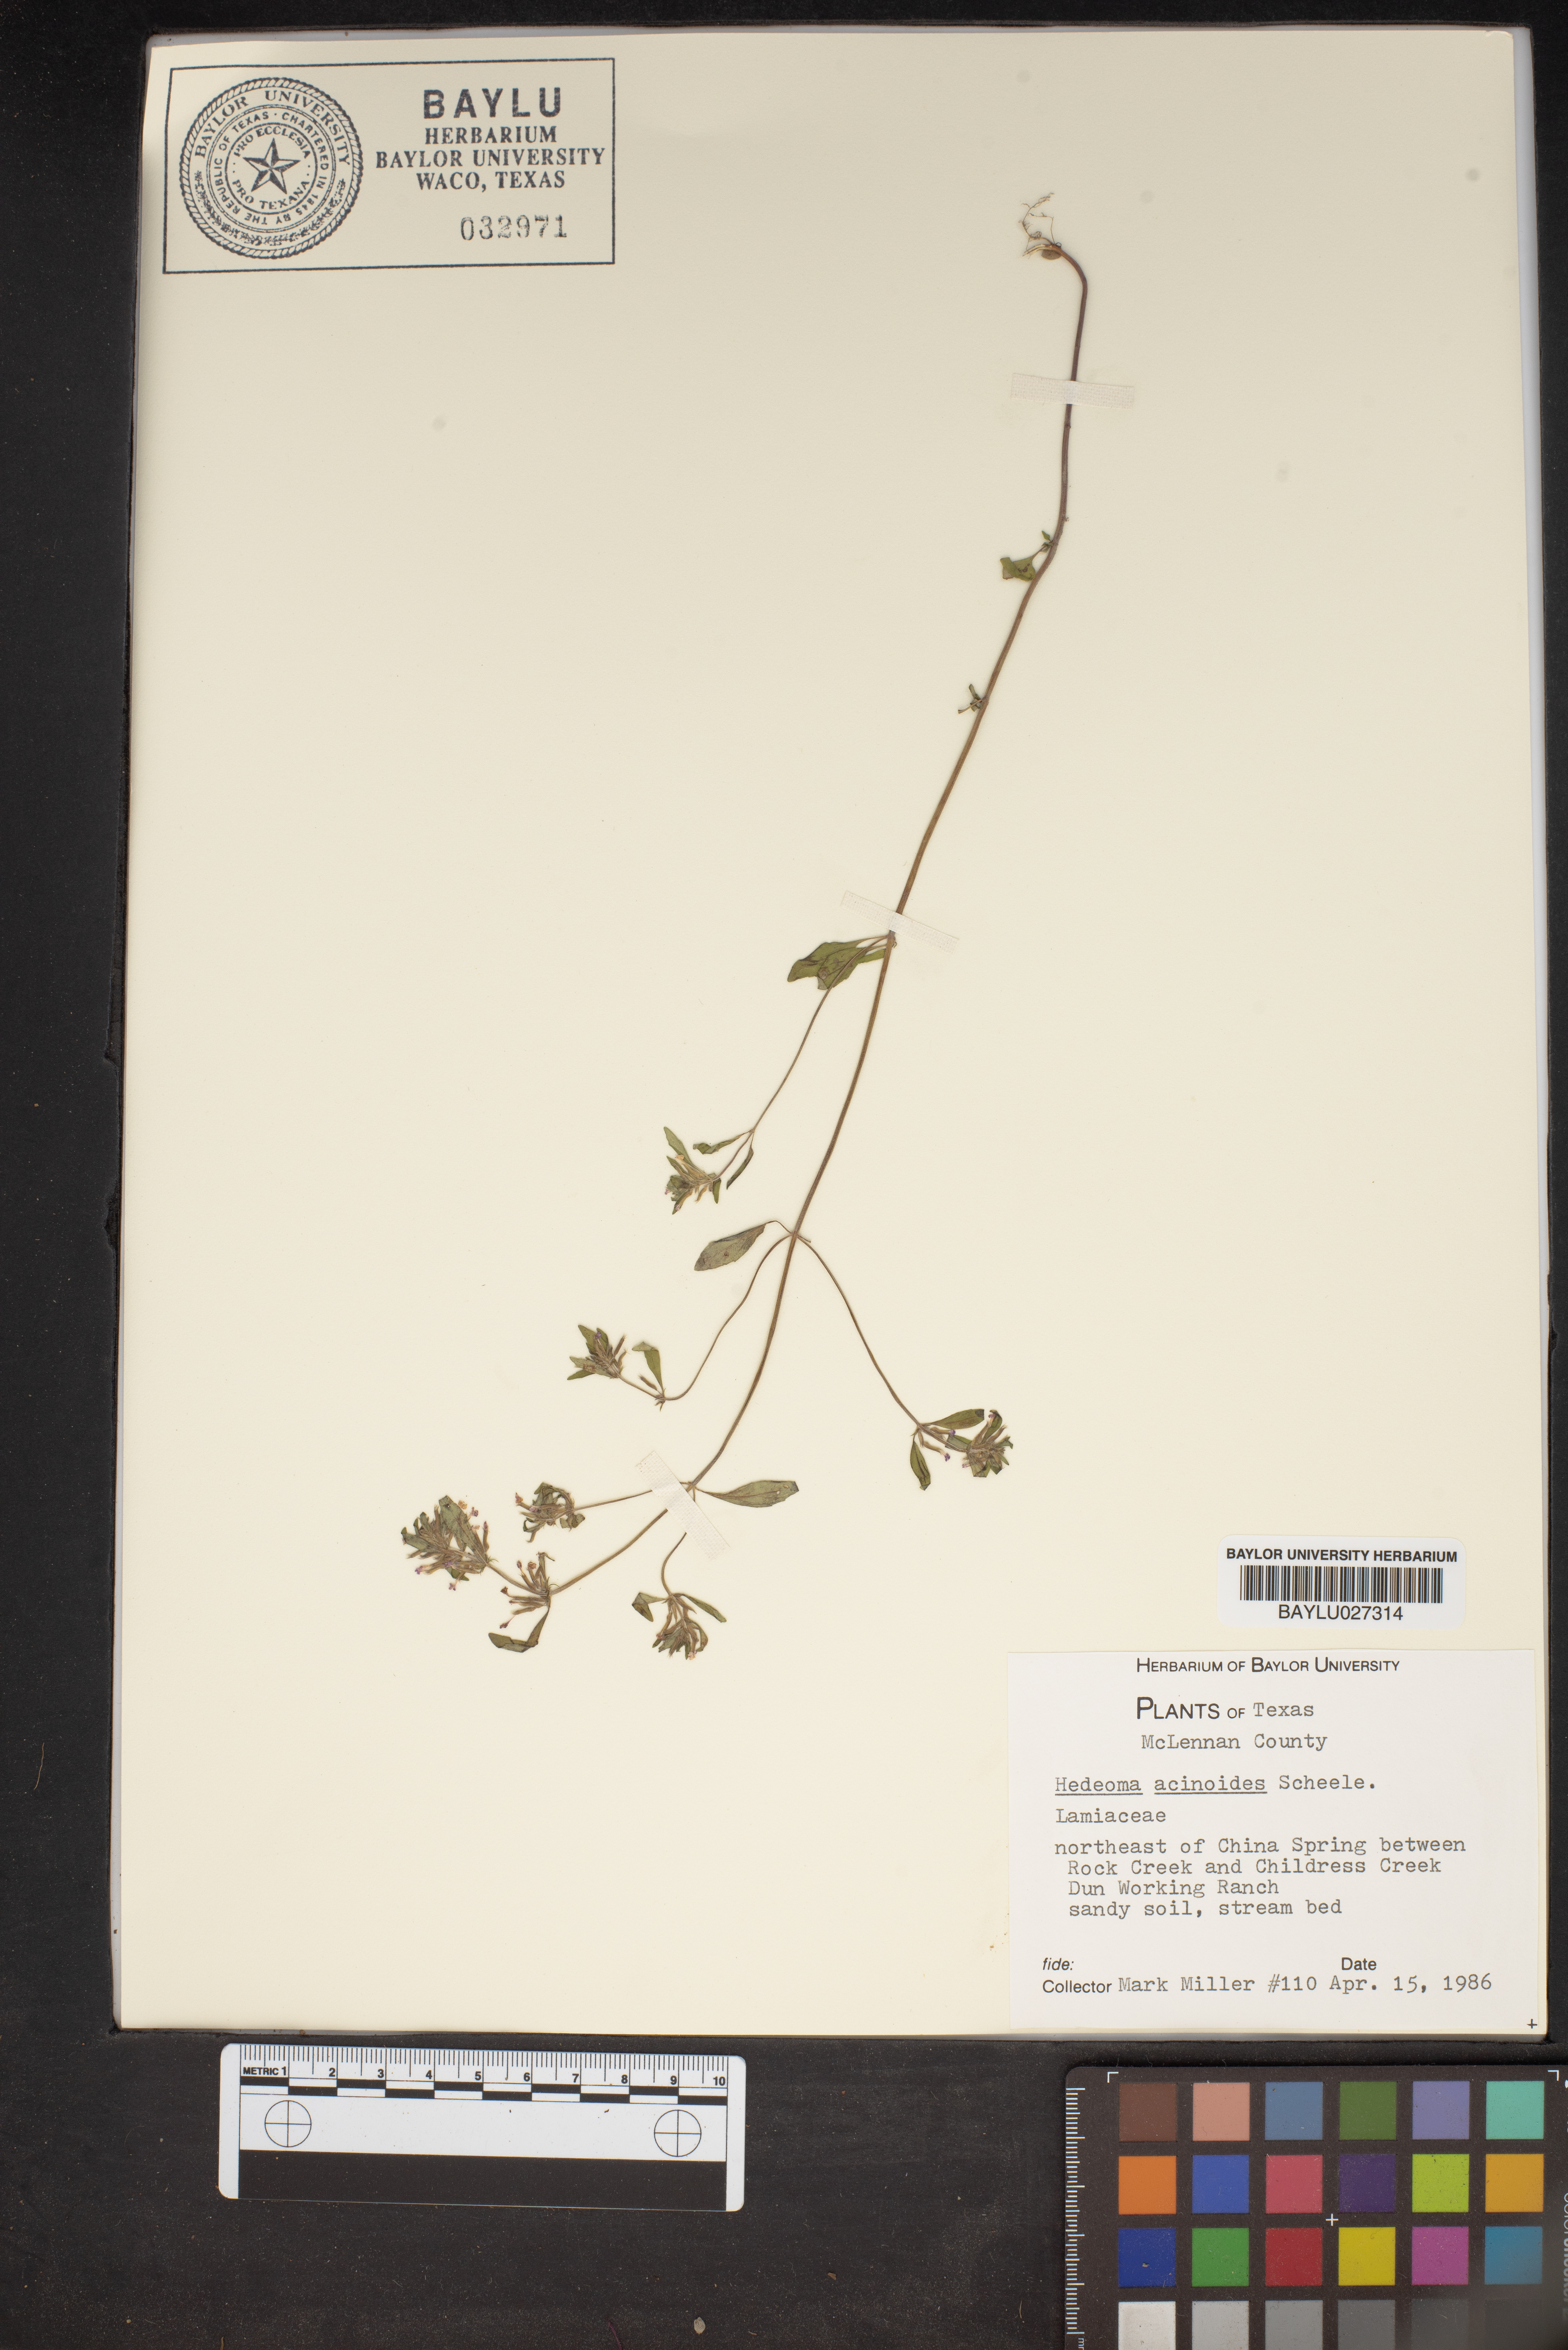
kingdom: Plantae
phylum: Tracheophyta
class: Magnoliopsida
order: Lamiales
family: Lamiaceae
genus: Hedeoma
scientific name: Hedeoma acinoides
